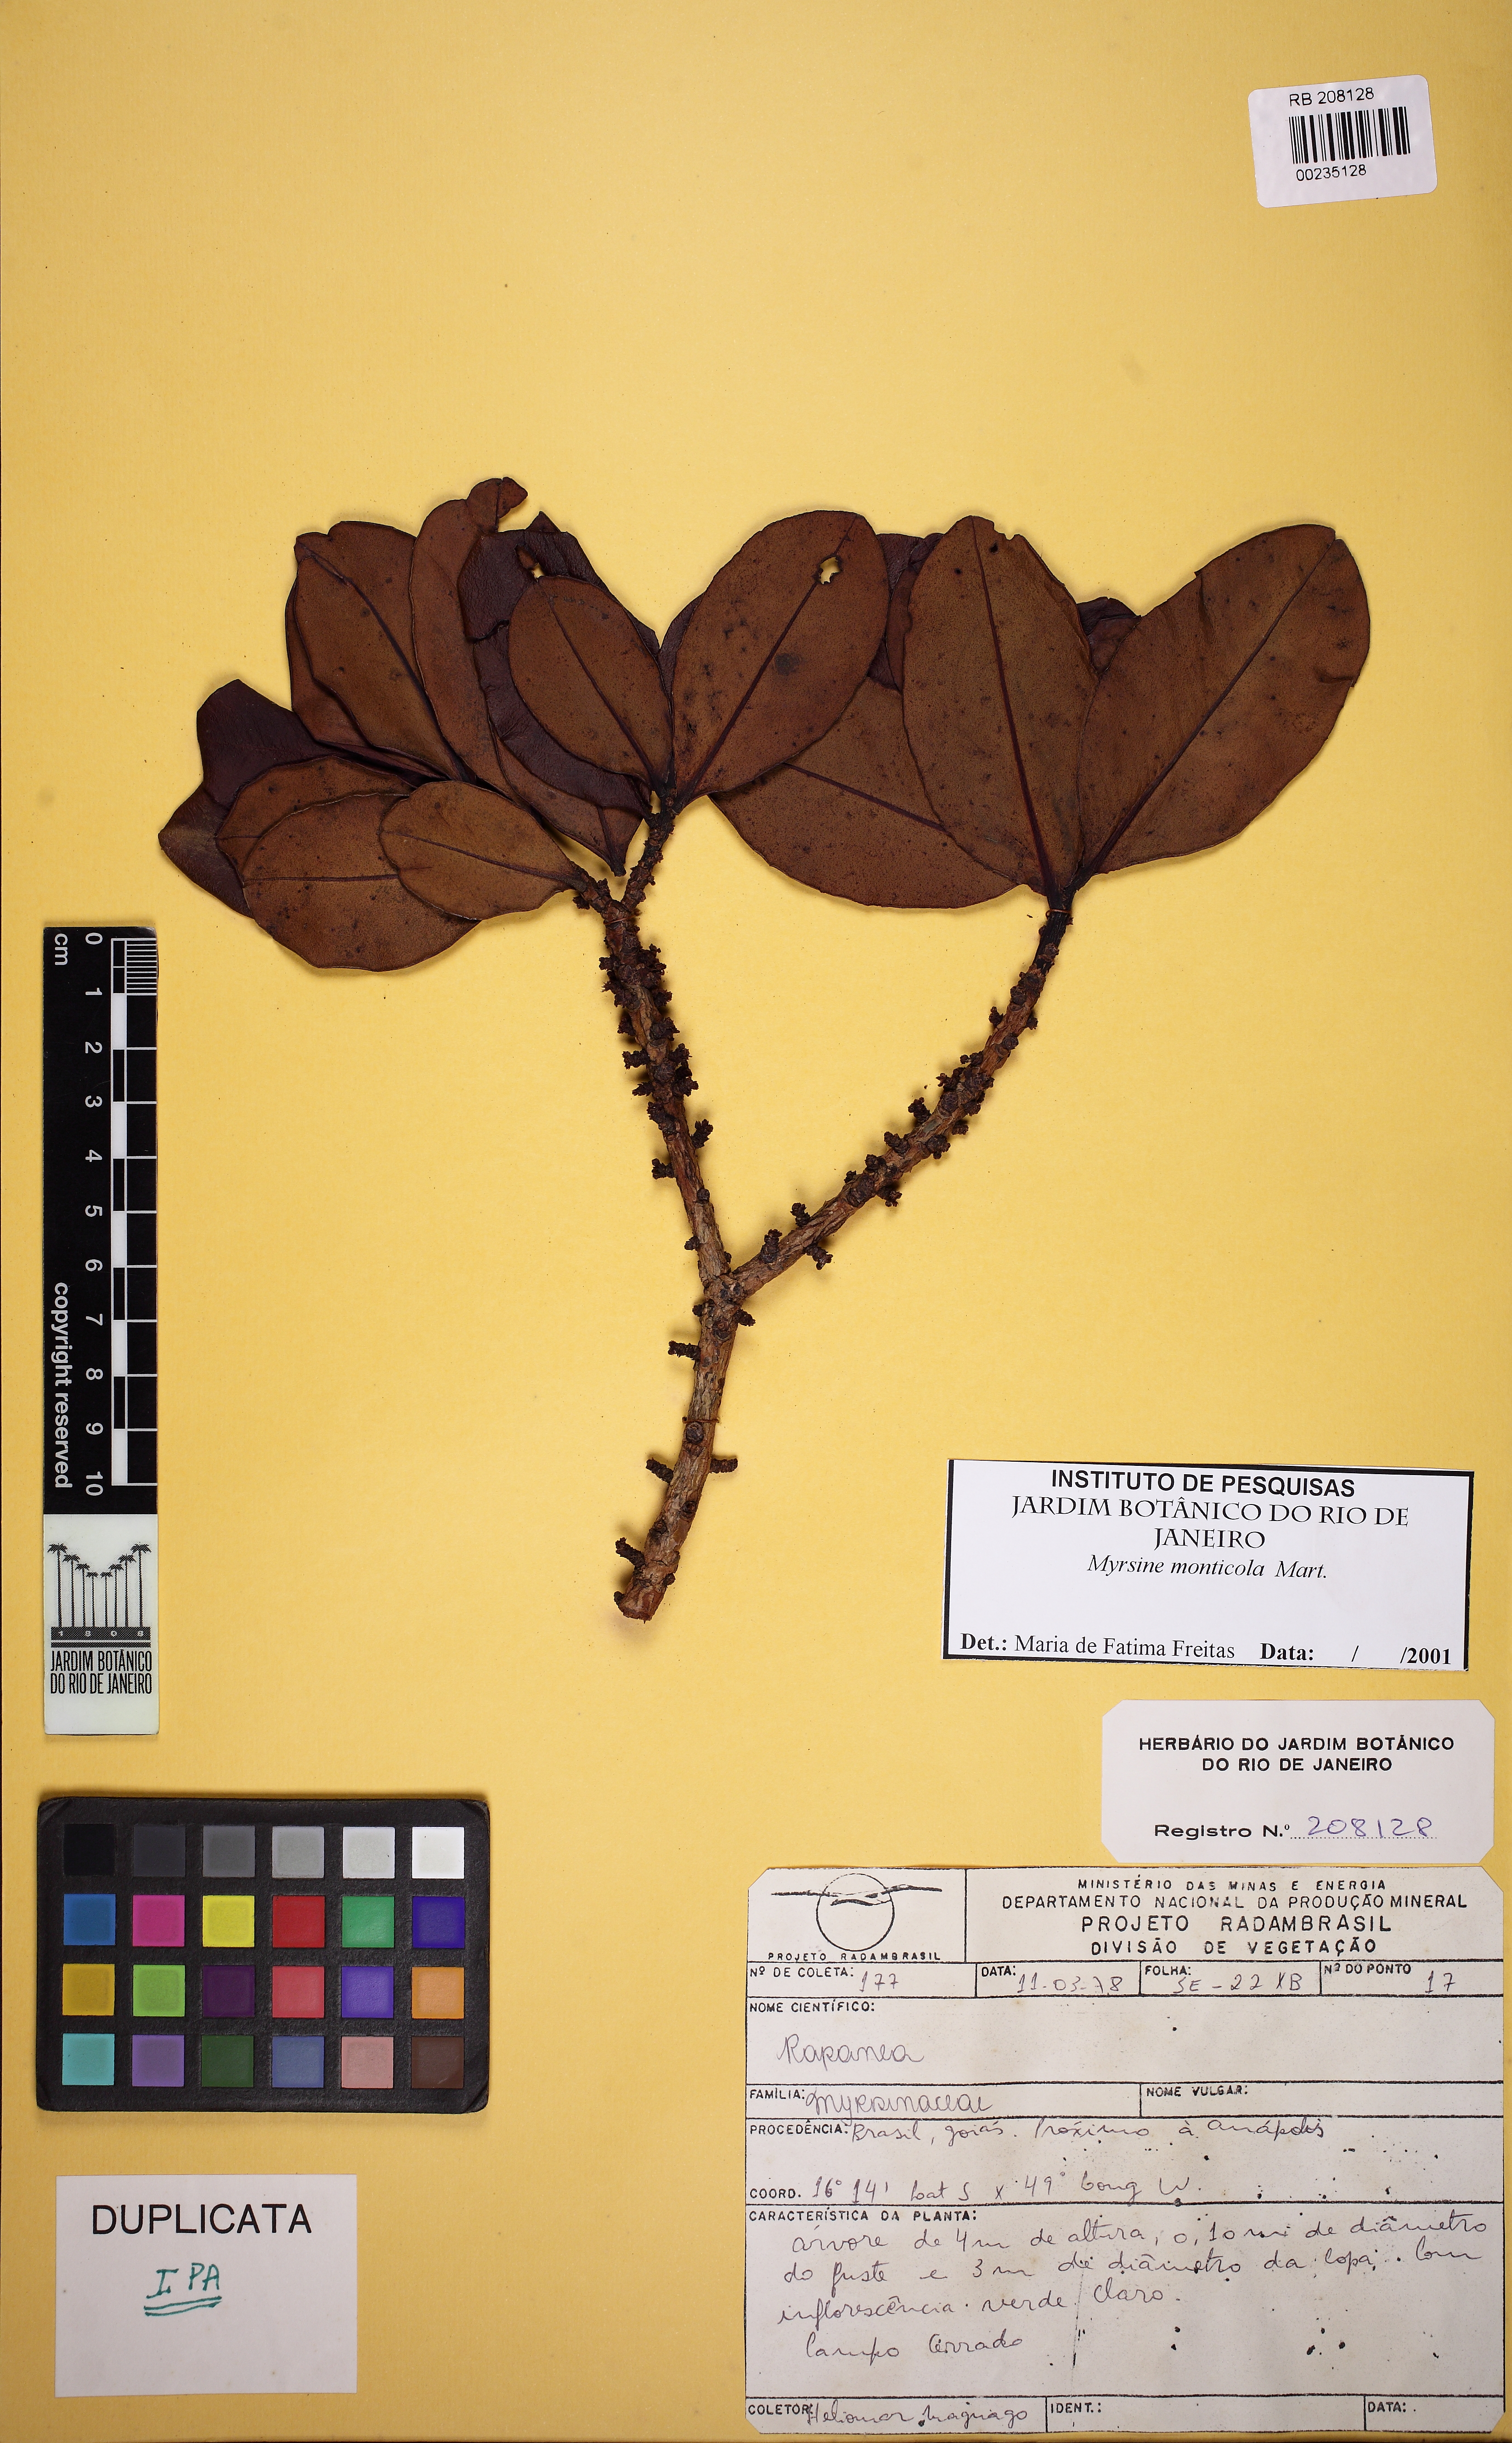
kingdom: Plantae
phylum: Tracheophyta
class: Magnoliopsida
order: Ericales
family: Primulaceae
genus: Myrsine
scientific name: Myrsine monticola
